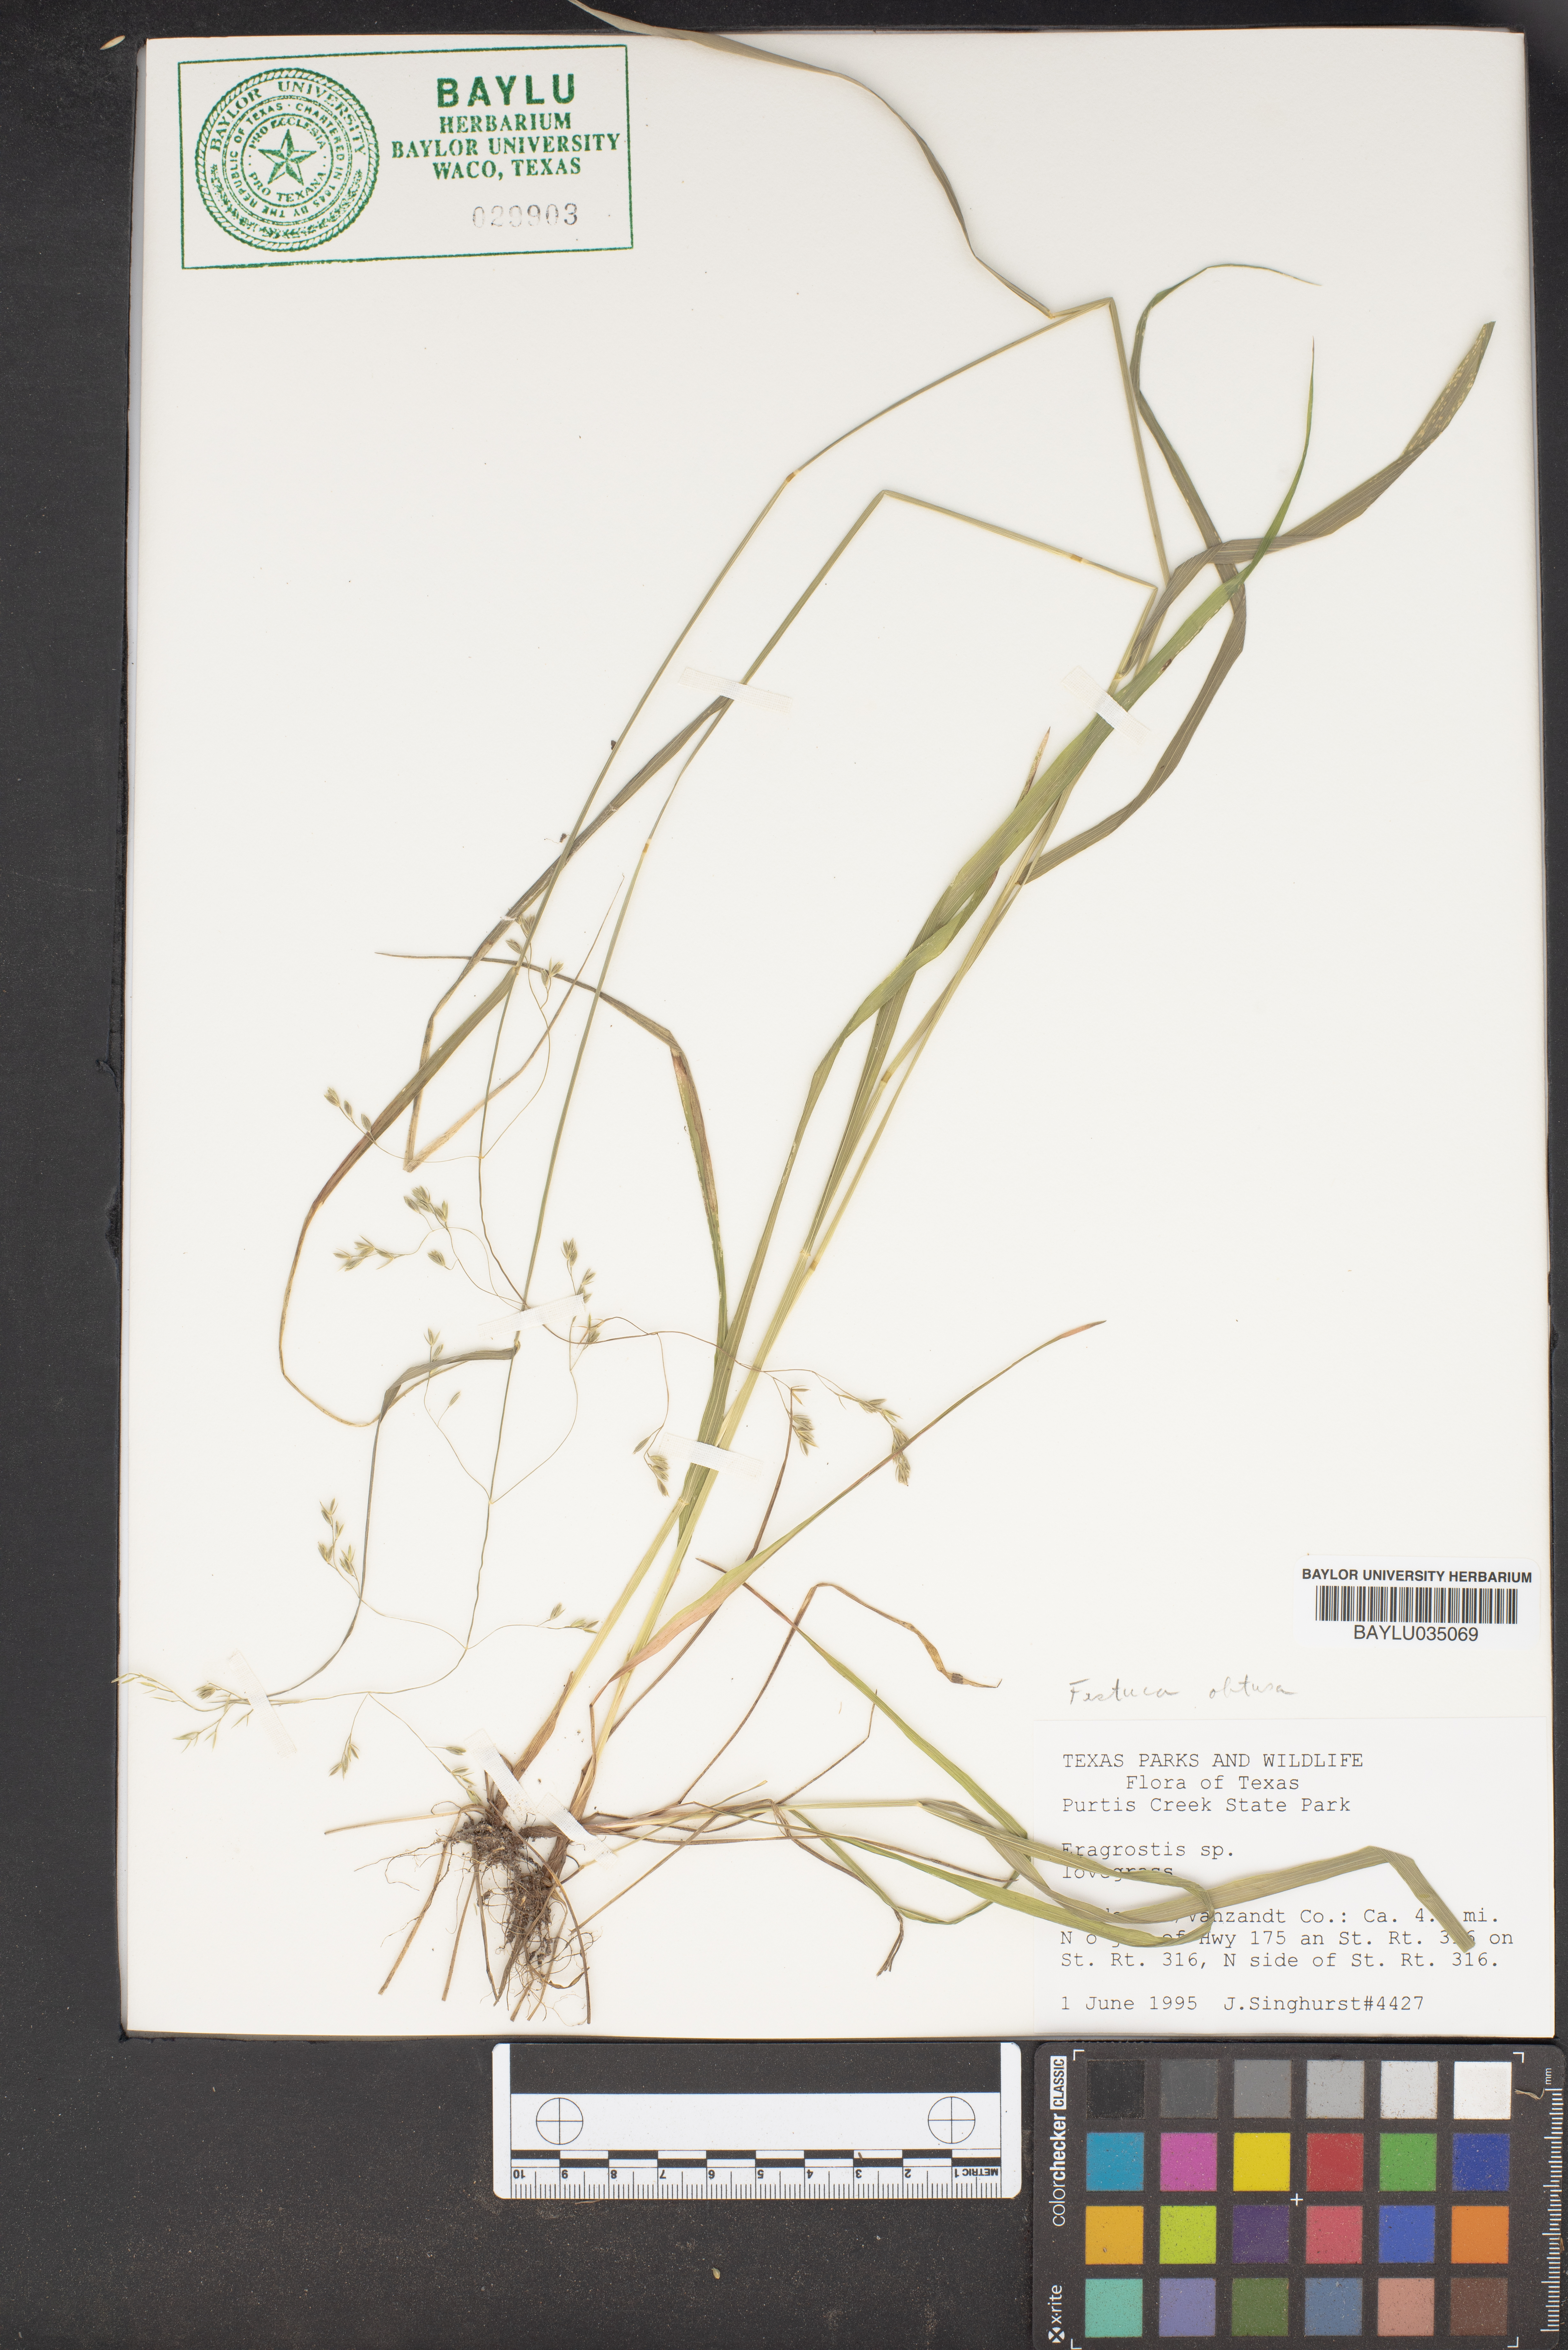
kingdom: Plantae
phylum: Tracheophyta
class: Liliopsida
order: Poales
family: Poaceae
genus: Eragrostis
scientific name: Eragrostis
